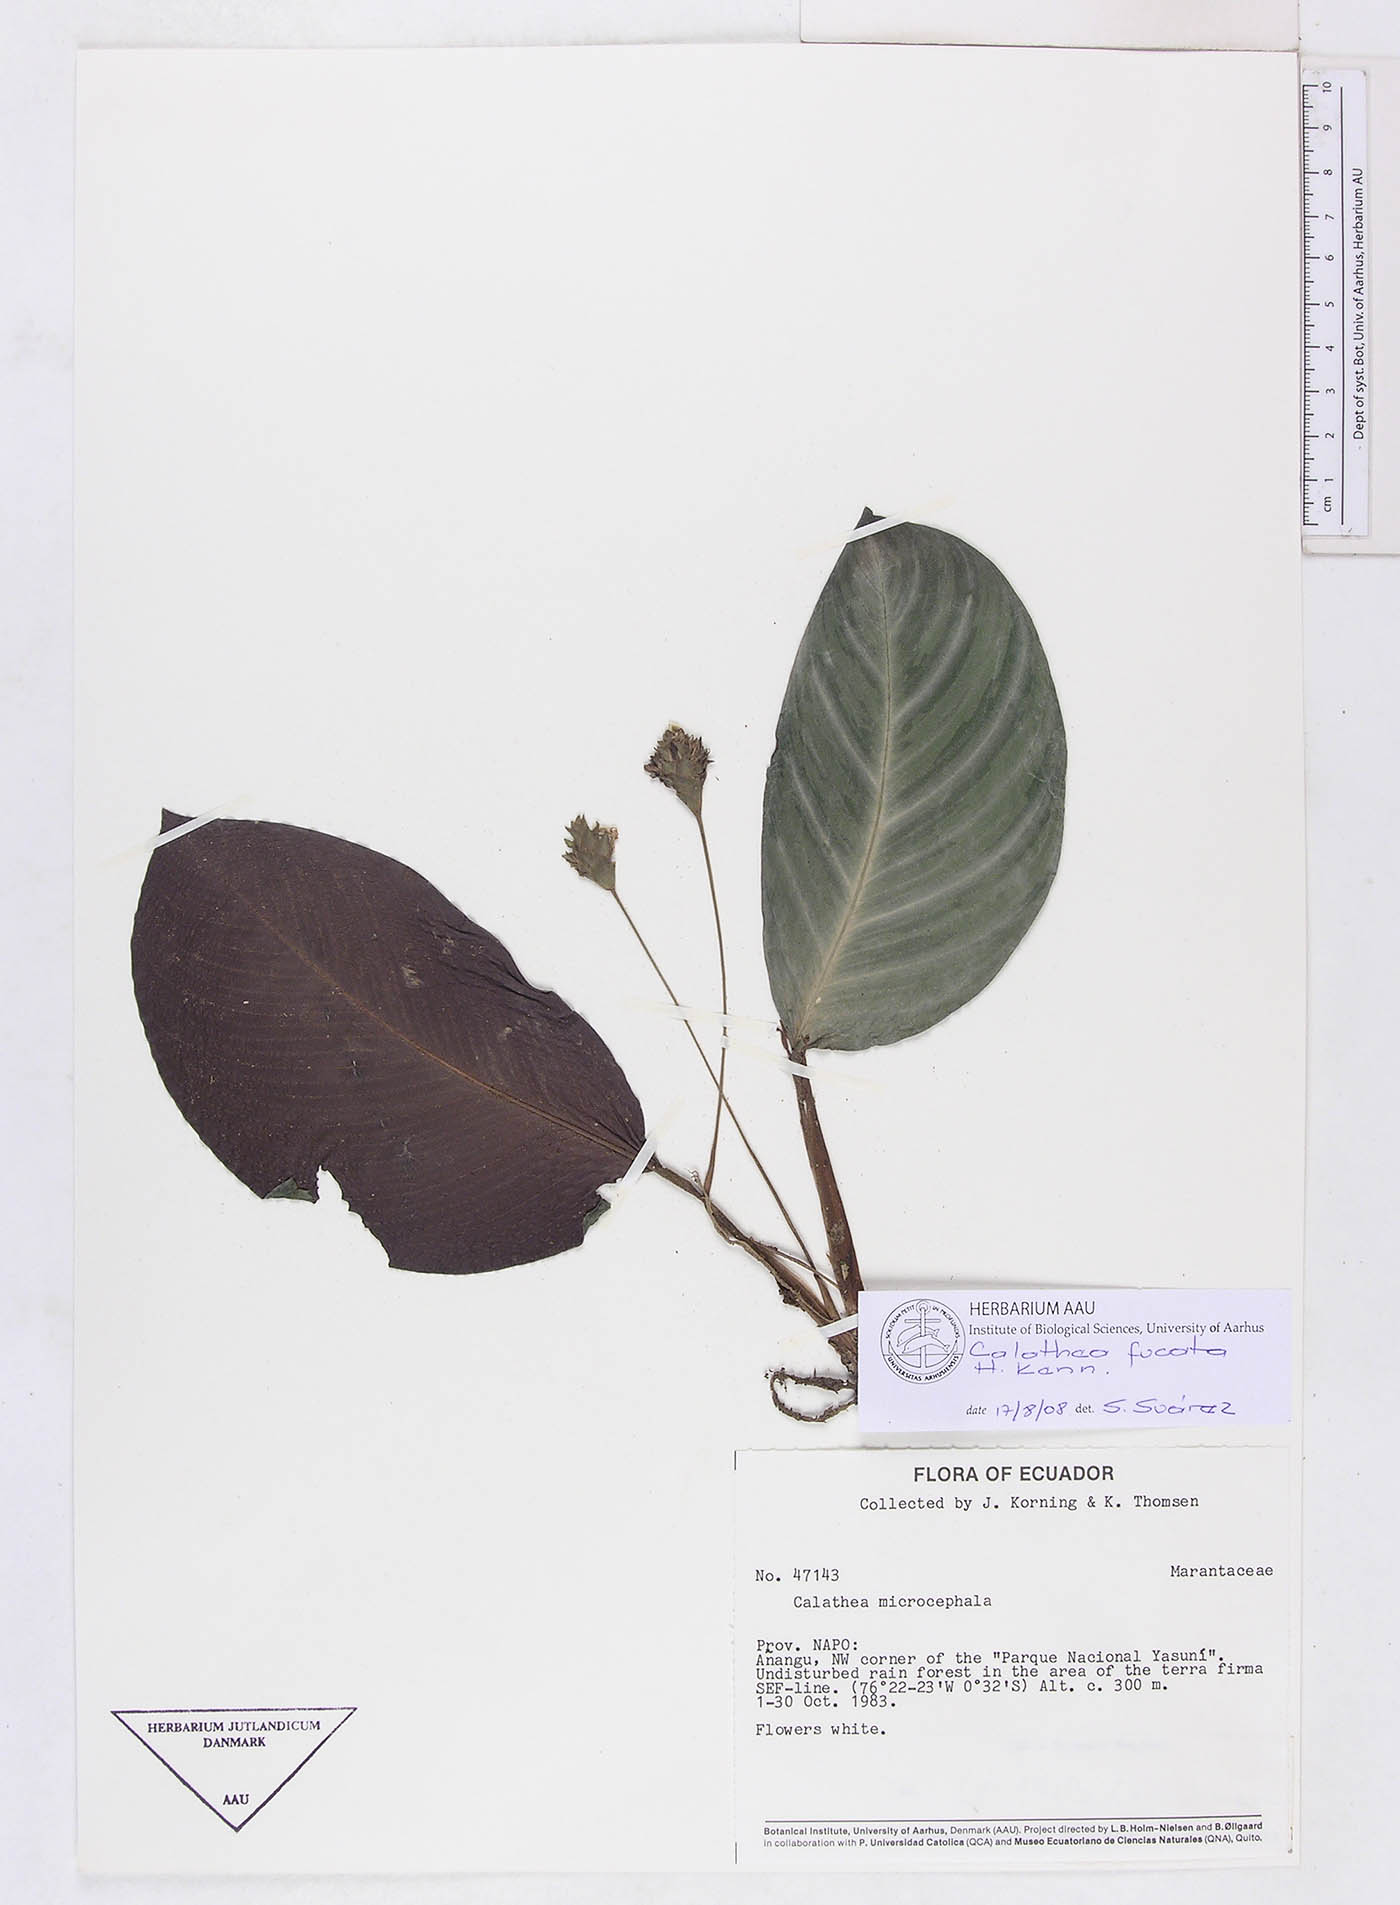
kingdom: Plantae
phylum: Tracheophyta
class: Liliopsida
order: Zingiberales
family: Marantaceae
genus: Goeppertia
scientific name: Goeppertia fucata
